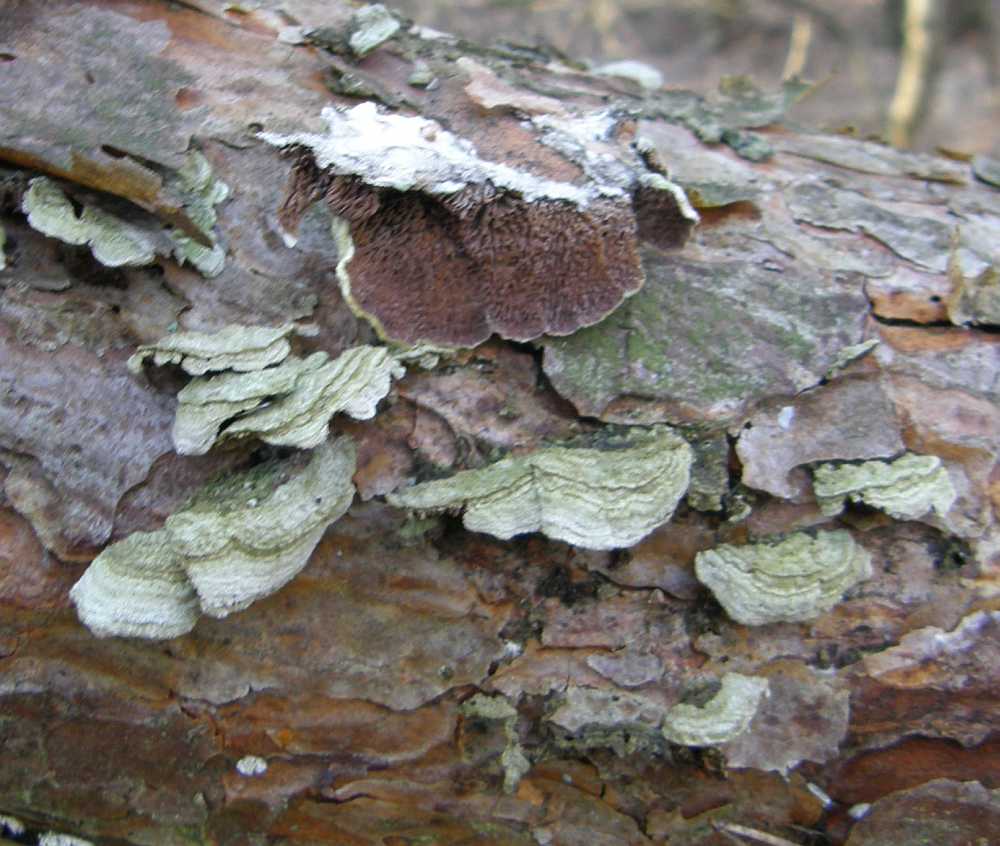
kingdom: Fungi
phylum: Basidiomycota
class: Agaricomycetes
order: Hymenochaetales
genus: Trichaptum
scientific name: Trichaptum fuscoviolaceum
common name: tandet violporesvamp
